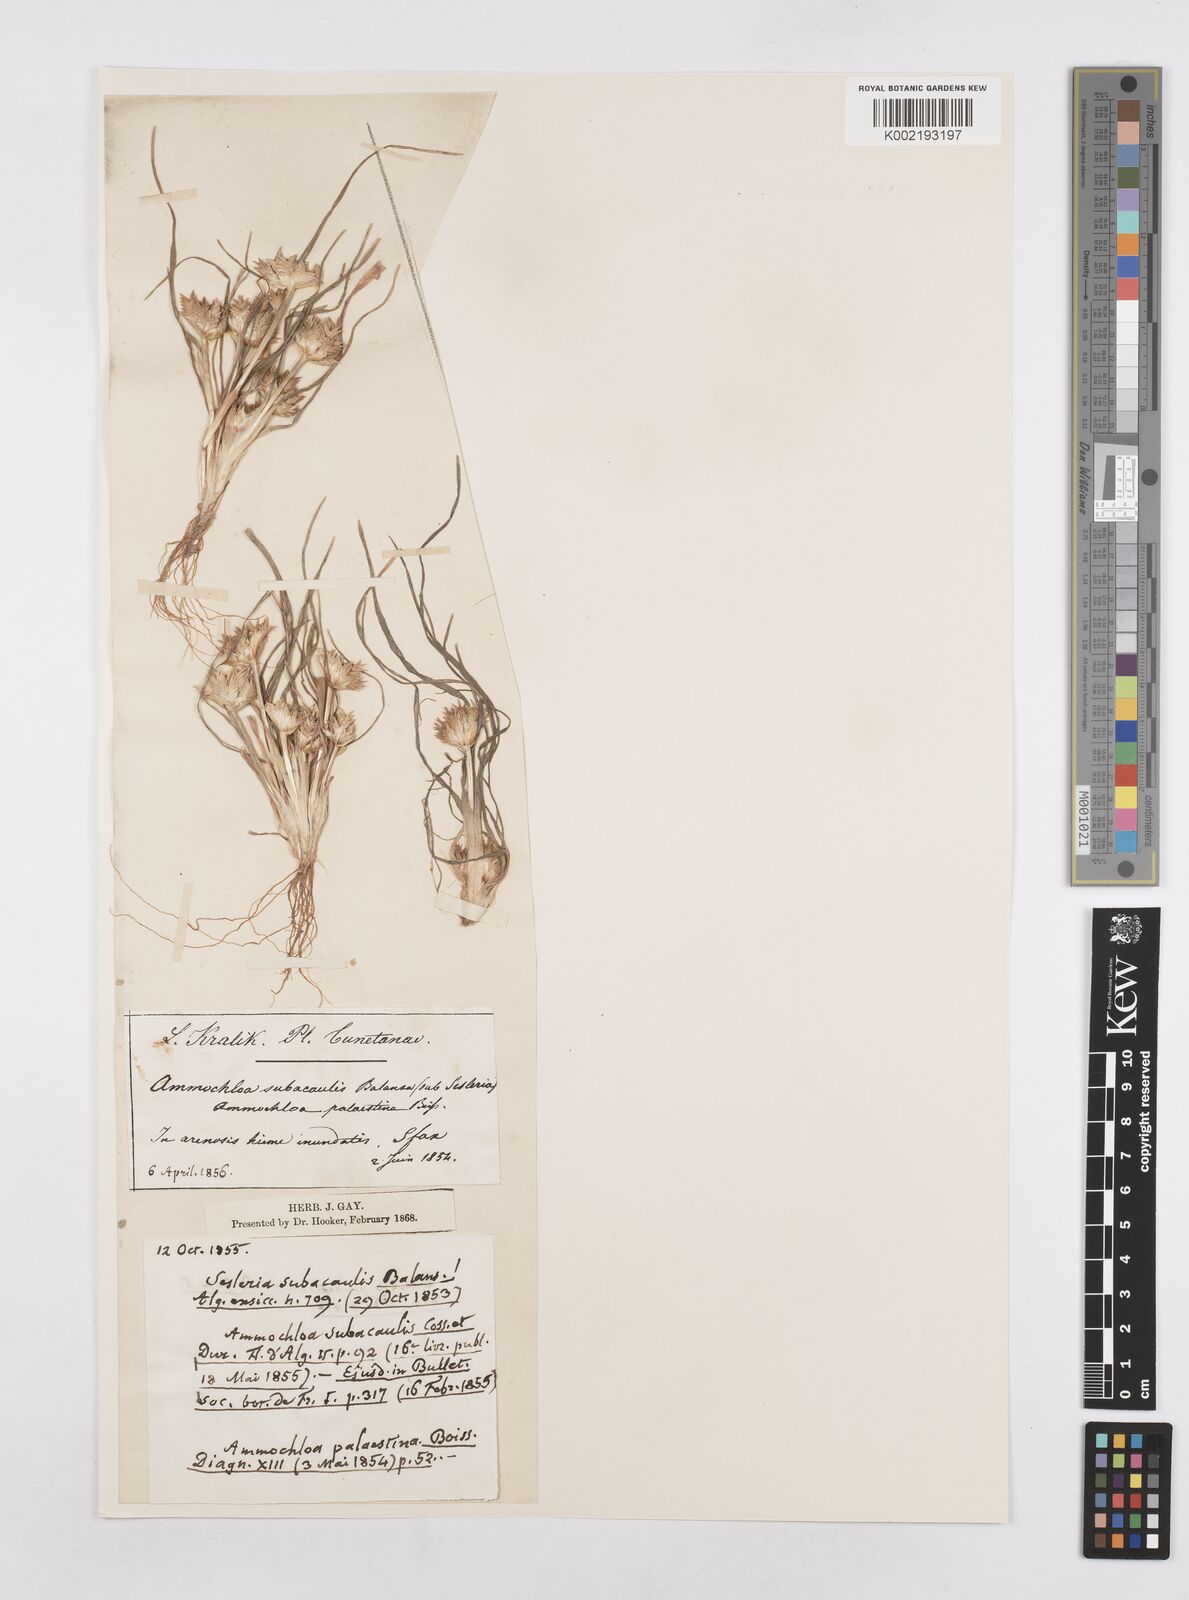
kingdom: Plantae
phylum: Tracheophyta
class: Liliopsida
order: Poales
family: Poaceae
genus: Ammochloa
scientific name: Ammochloa palaestina
